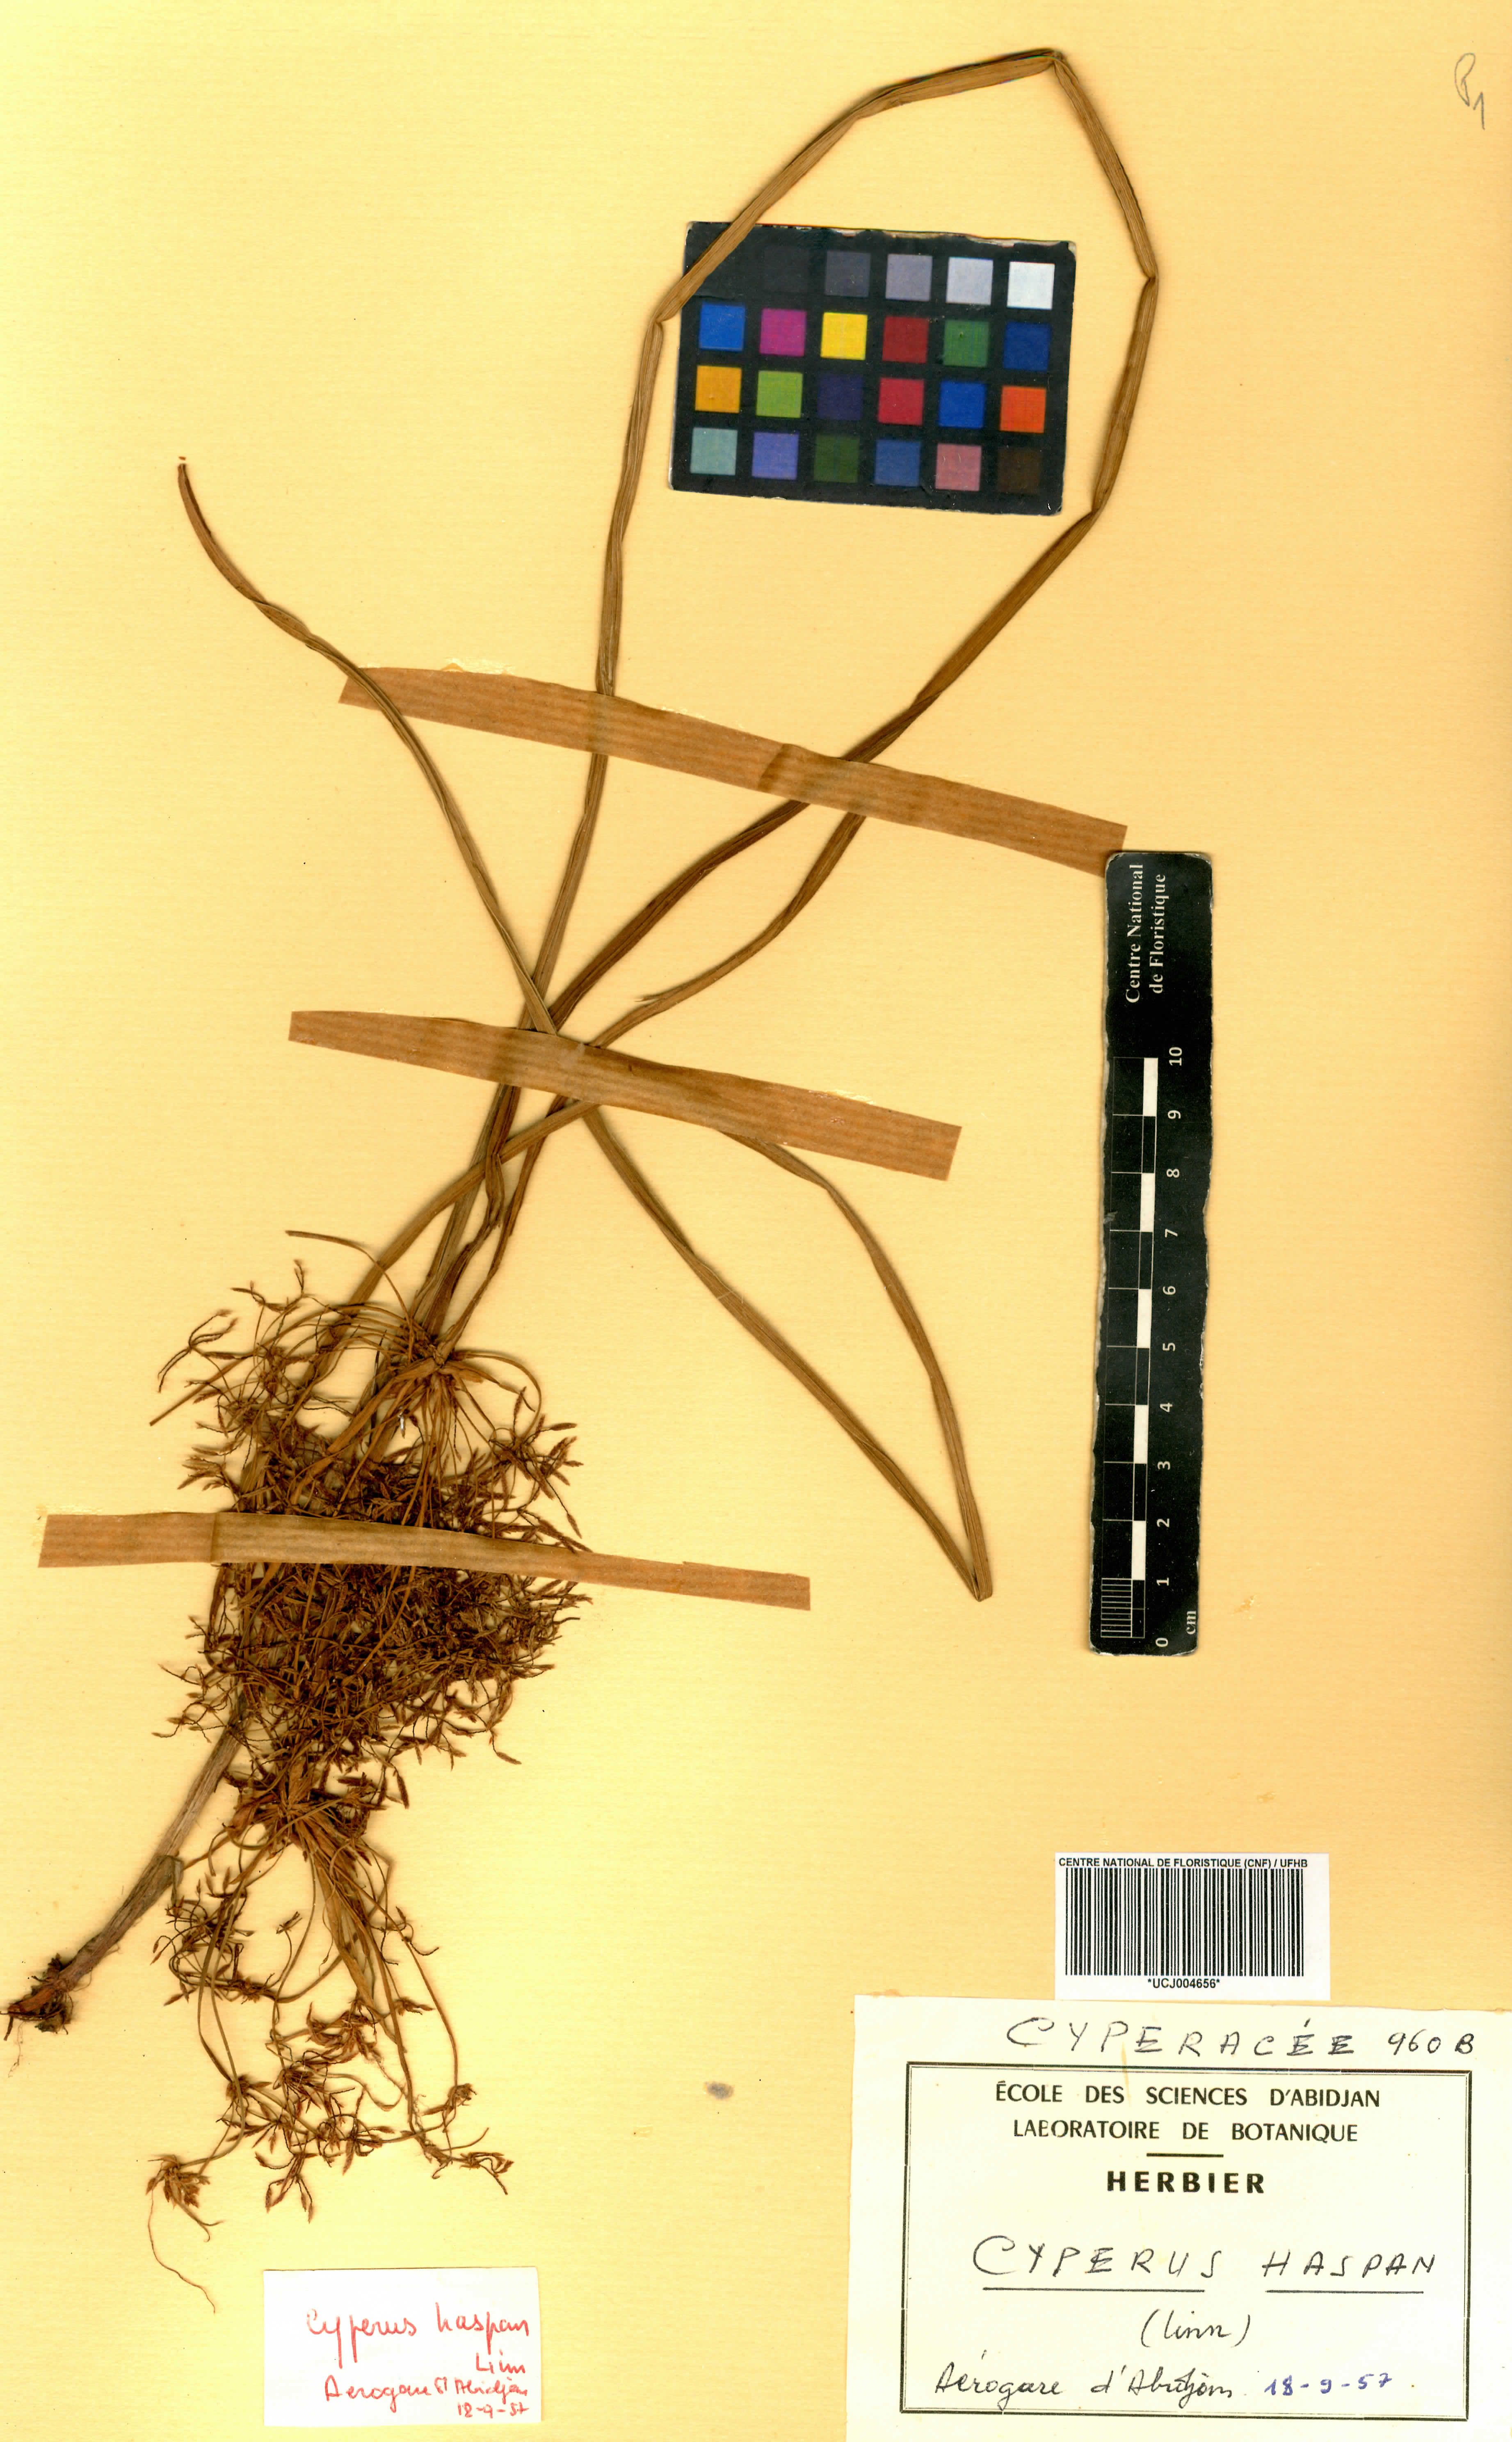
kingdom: Plantae
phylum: Tracheophyta
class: Liliopsida
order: Poales
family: Cyperaceae
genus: Cyperus
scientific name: Cyperus haspan
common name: Haspan flatsedge
